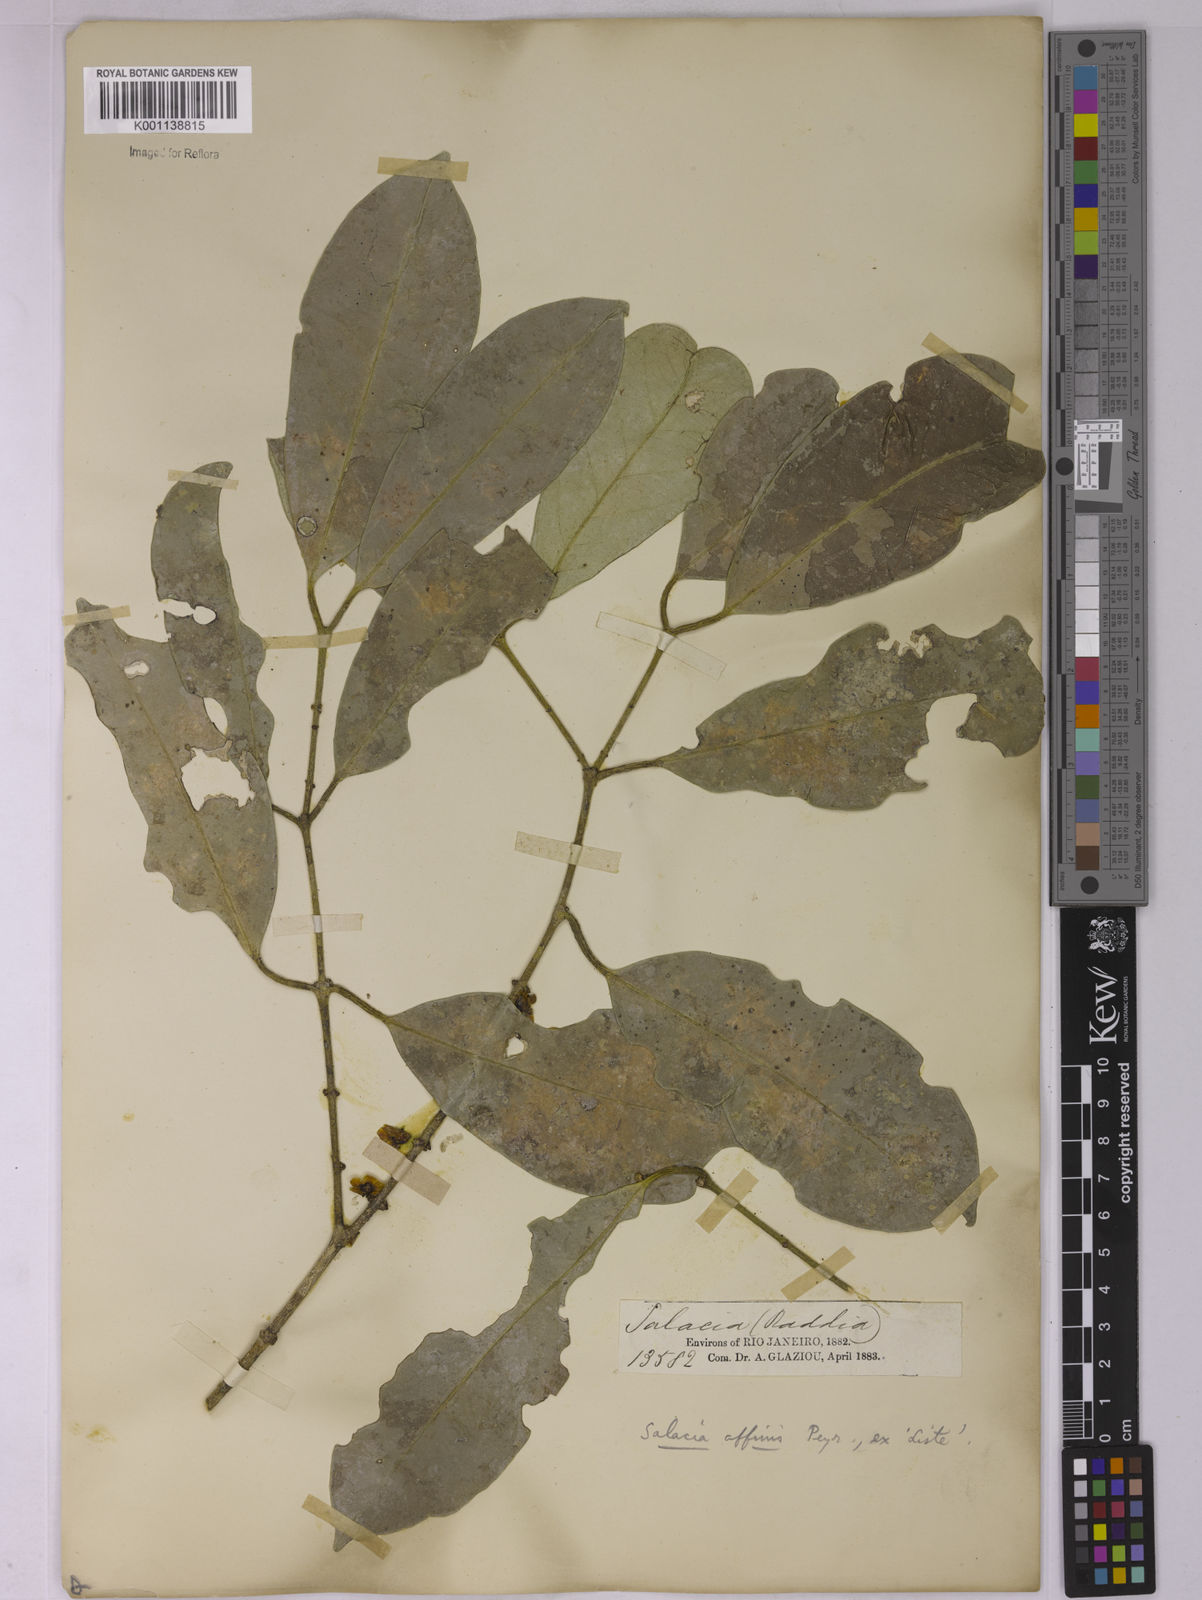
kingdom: Plantae
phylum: Tracheophyta
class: Magnoliopsida
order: Celastrales
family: Celastraceae
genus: Salacia
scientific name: Salacia elliptica
